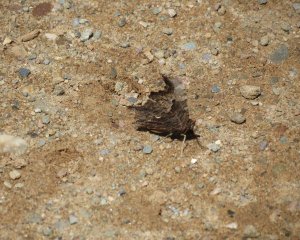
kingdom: Animalia
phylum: Arthropoda
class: Insecta
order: Lepidoptera
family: Nymphalidae
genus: Polygonia
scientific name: Polygonia progne
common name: Gray Comma
